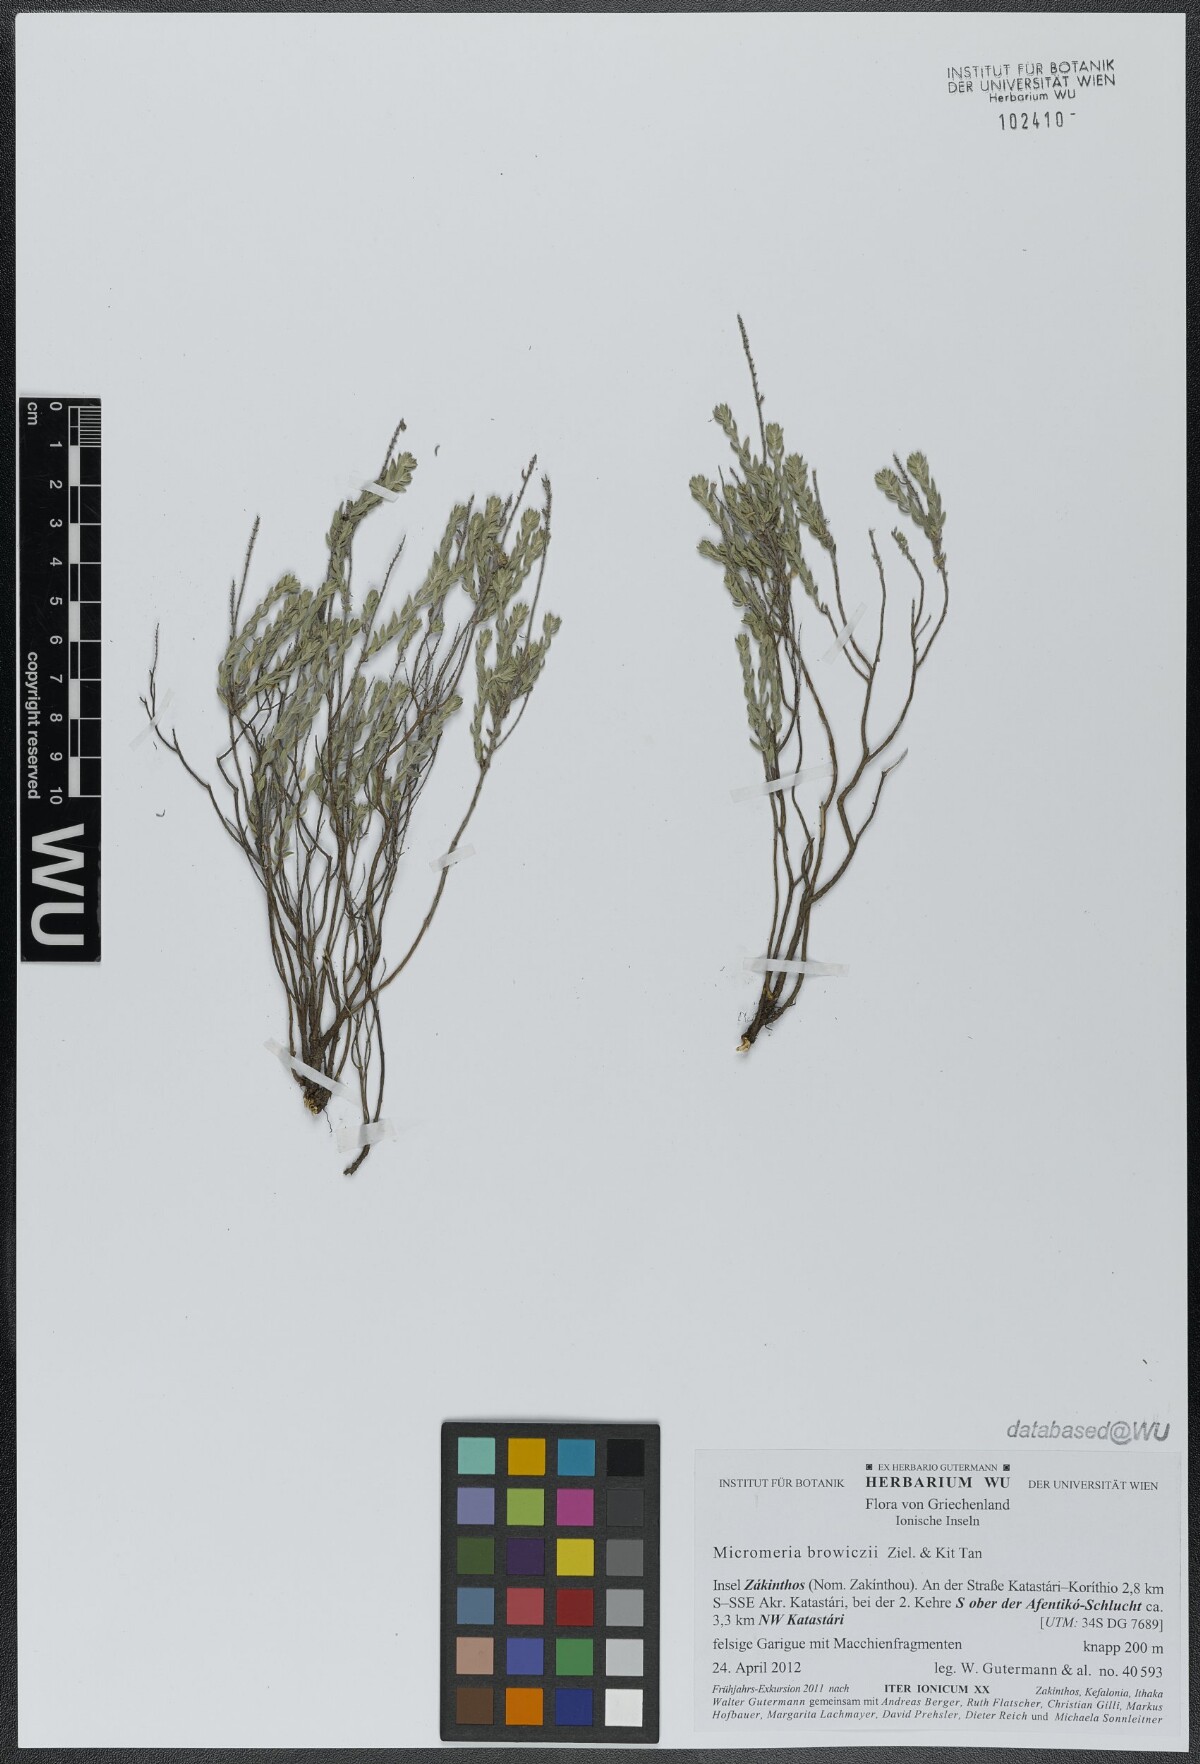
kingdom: Plantae
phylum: Tracheophyta
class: Magnoliopsida
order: Lamiales
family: Lamiaceae
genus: Micromeria
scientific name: Micromeria browiczii
